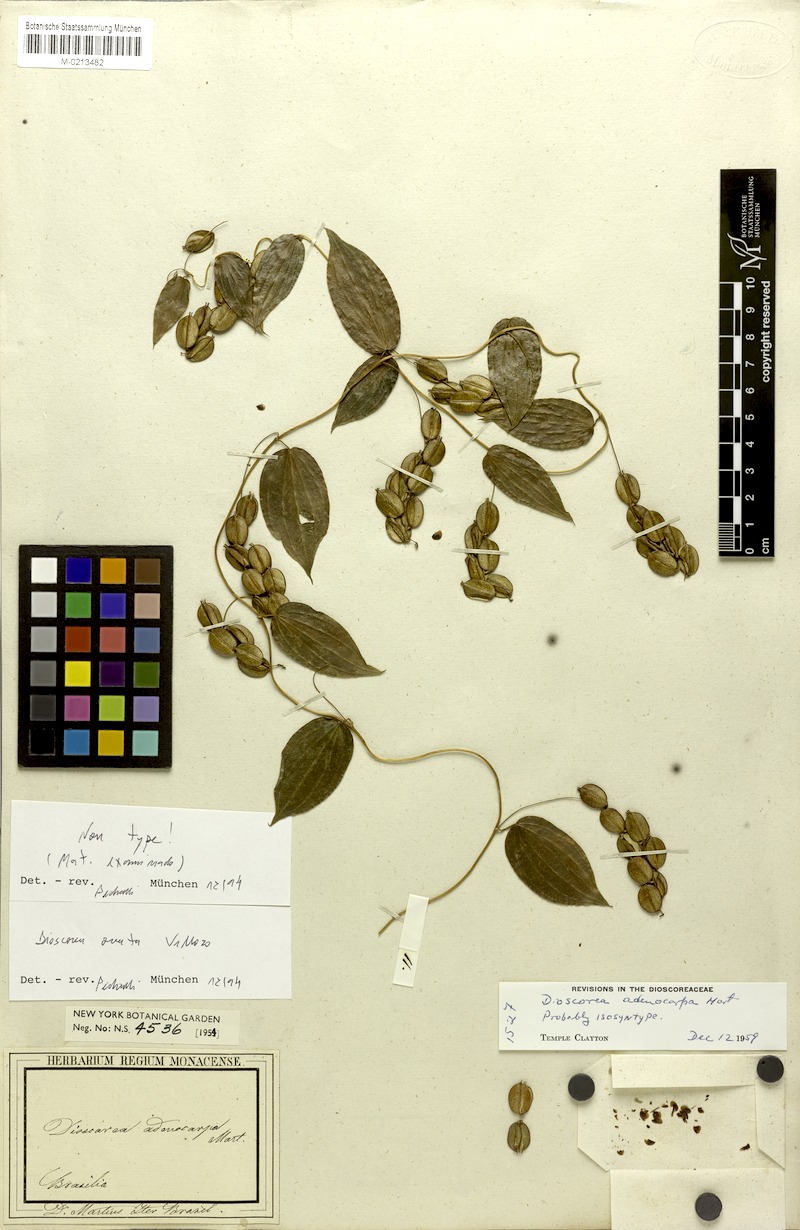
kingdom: Plantae
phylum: Tracheophyta
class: Liliopsida
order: Dioscoreales
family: Dioscoreaceae
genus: Dioscorea
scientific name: Dioscorea ovata
